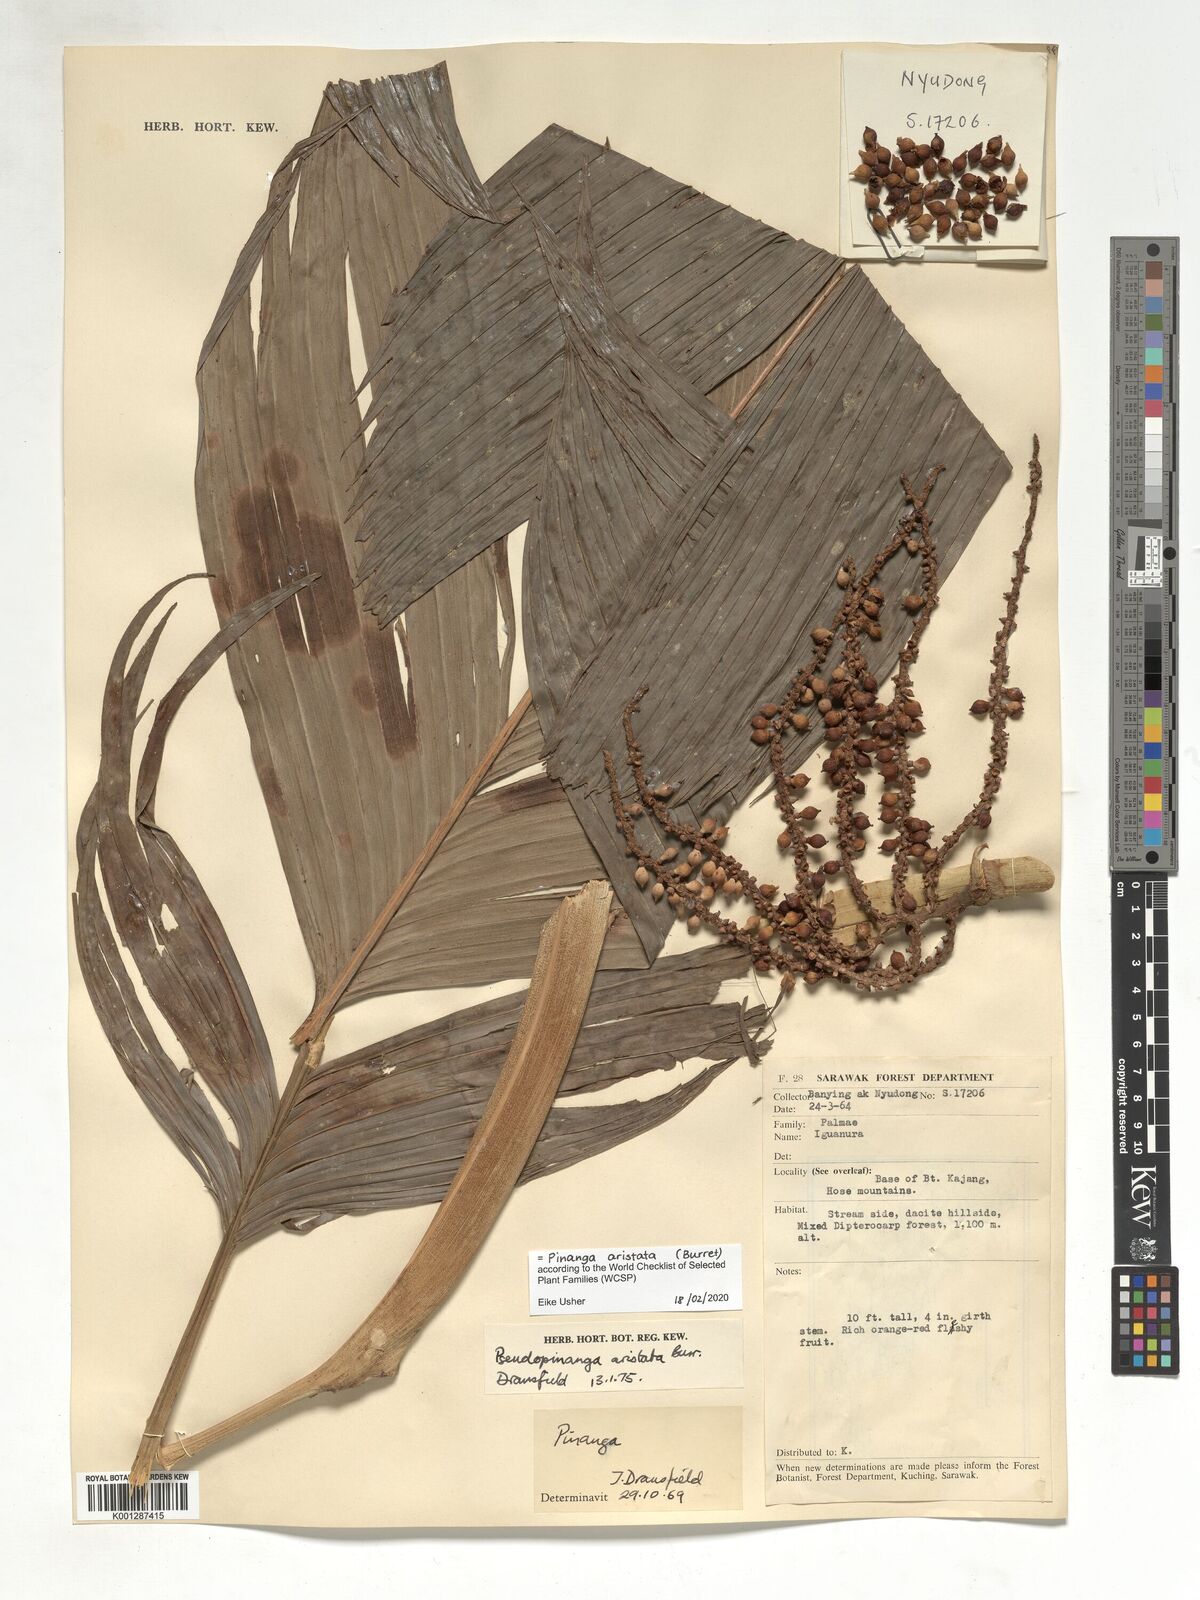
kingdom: Plantae
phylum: Tracheophyta
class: Liliopsida
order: Arecales
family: Arecaceae
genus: Pinanga
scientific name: Pinanga aristata
